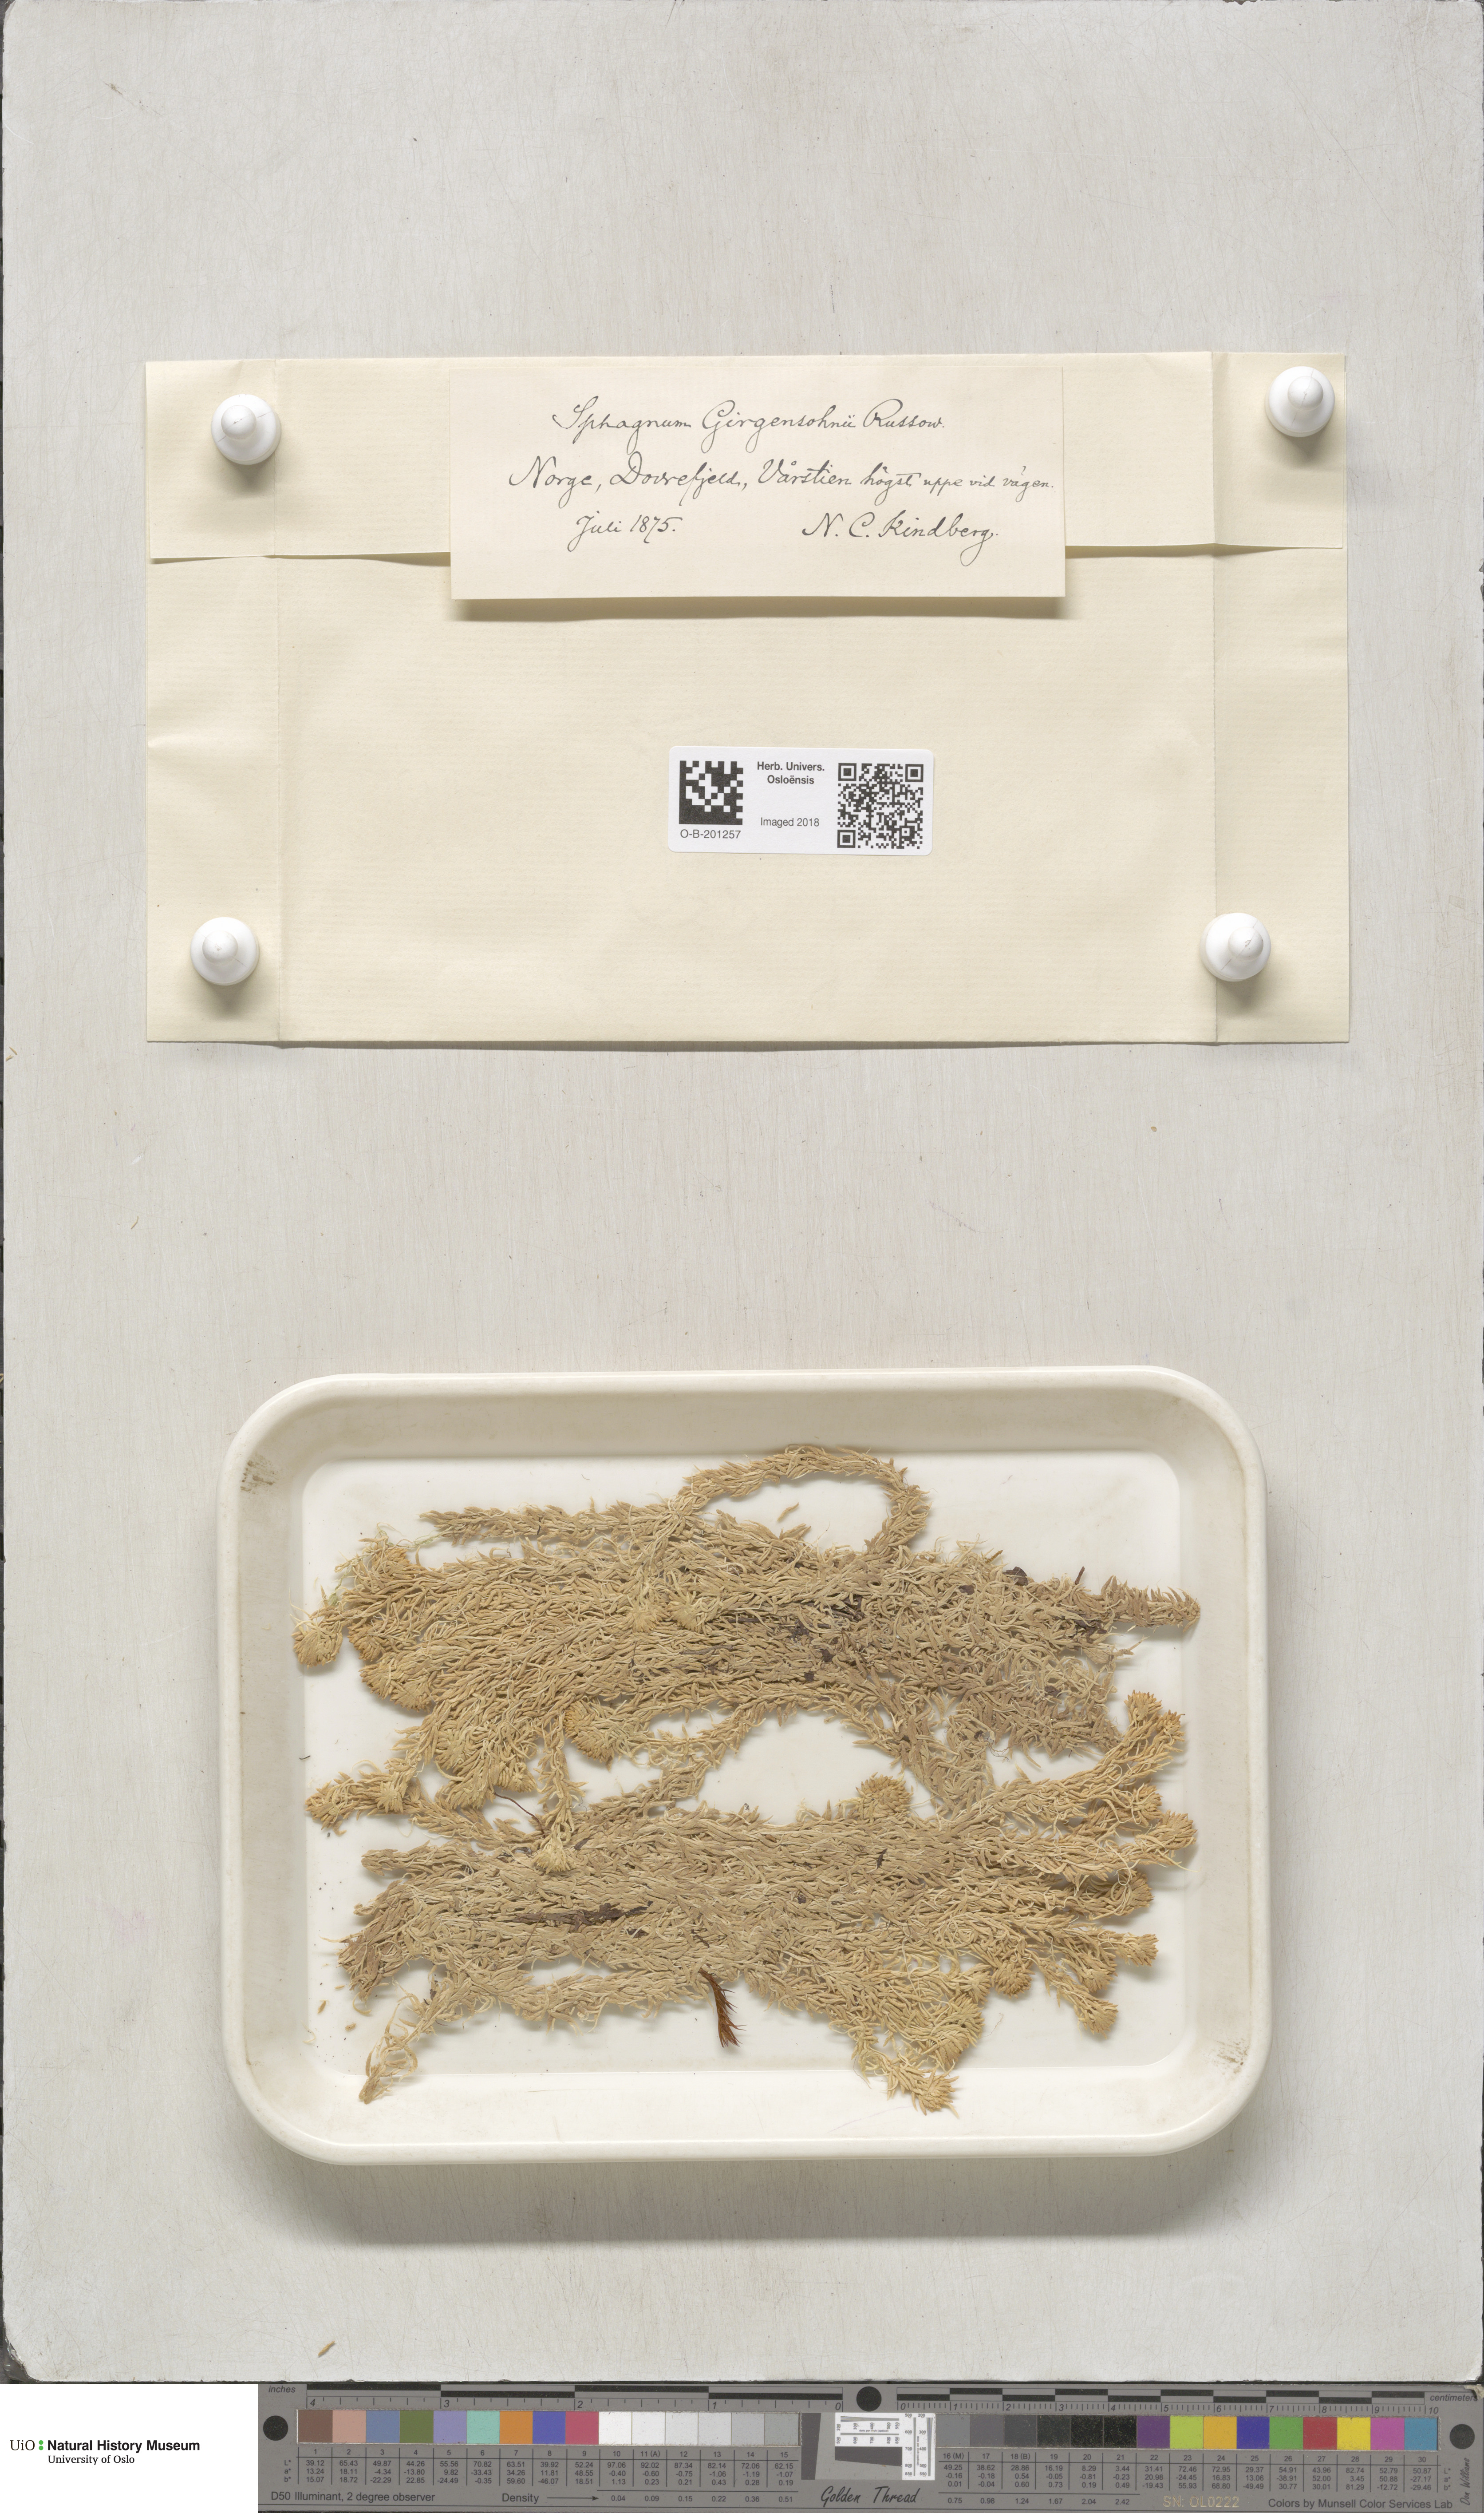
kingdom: Plantae
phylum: Bryophyta
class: Sphagnopsida
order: Sphagnales
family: Sphagnaceae
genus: Sphagnum
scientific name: Sphagnum girgensohnii
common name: Girgensohn's peat moss
